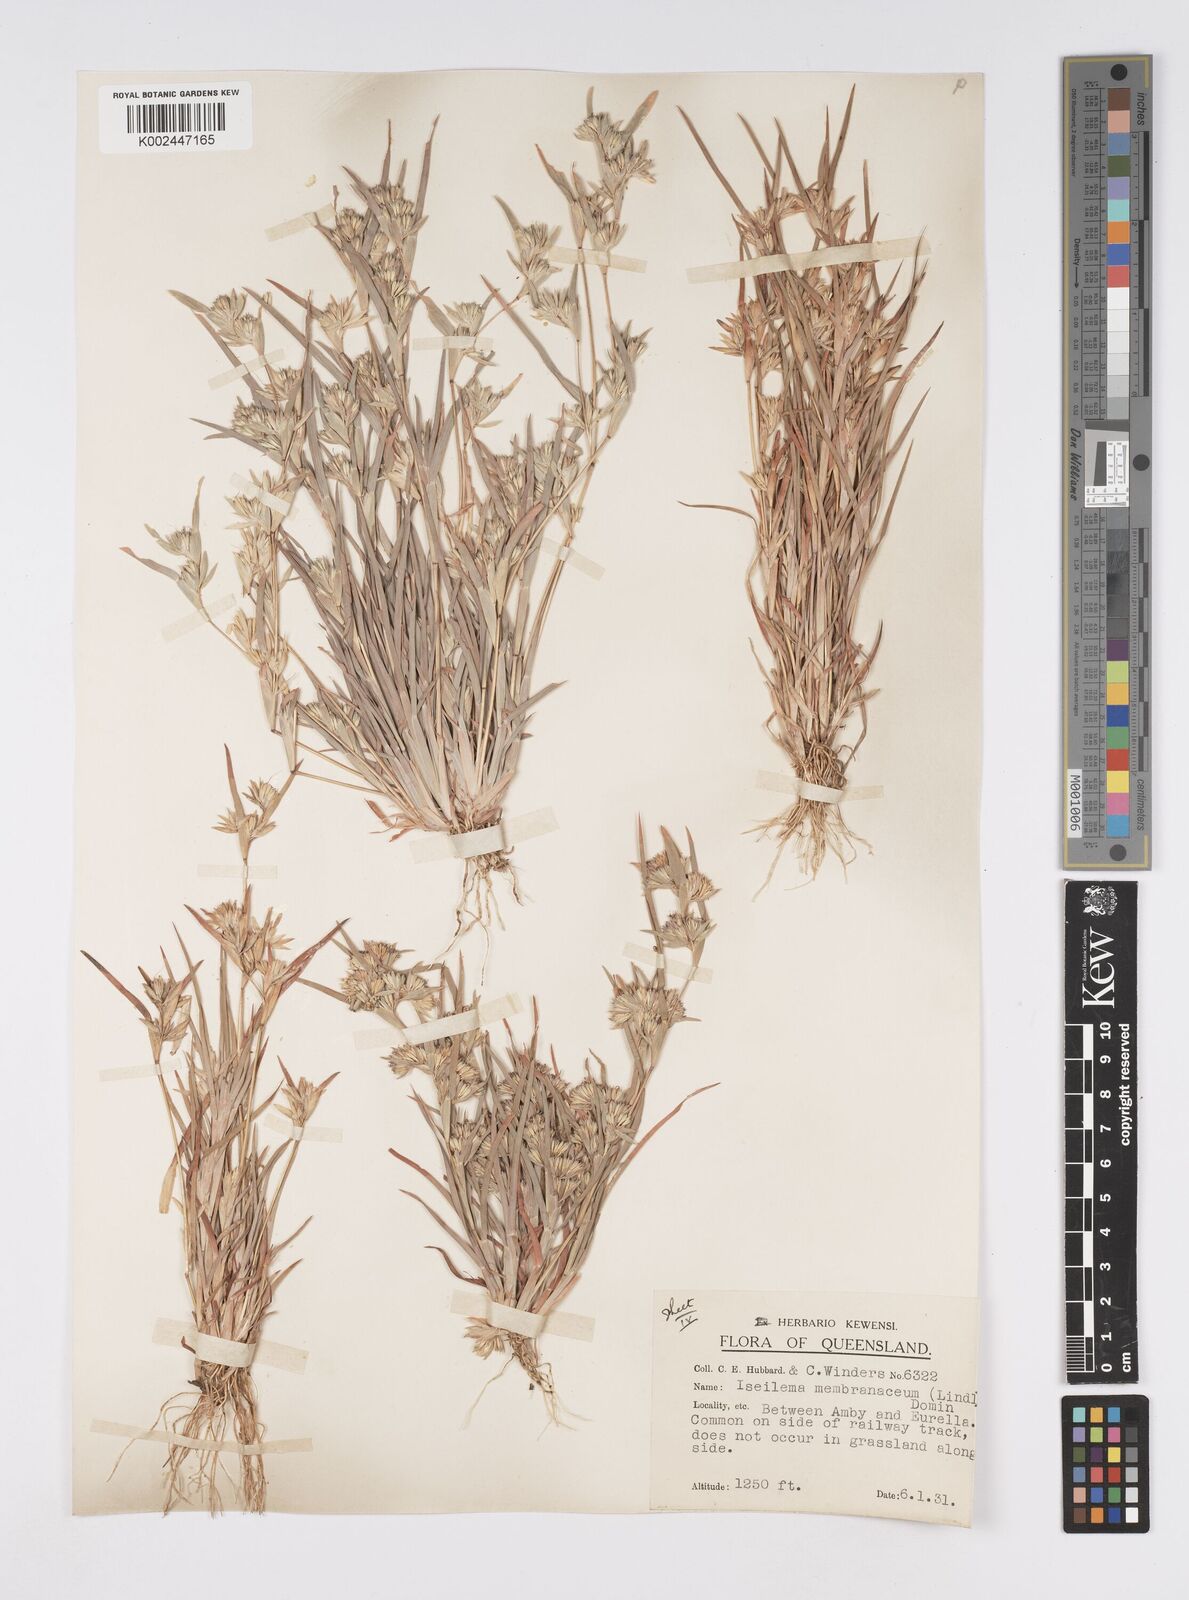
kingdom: Plantae
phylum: Tracheophyta
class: Liliopsida
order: Poales
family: Poaceae
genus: Iseilema
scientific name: Iseilema membranaceum
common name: Small flinders grass
